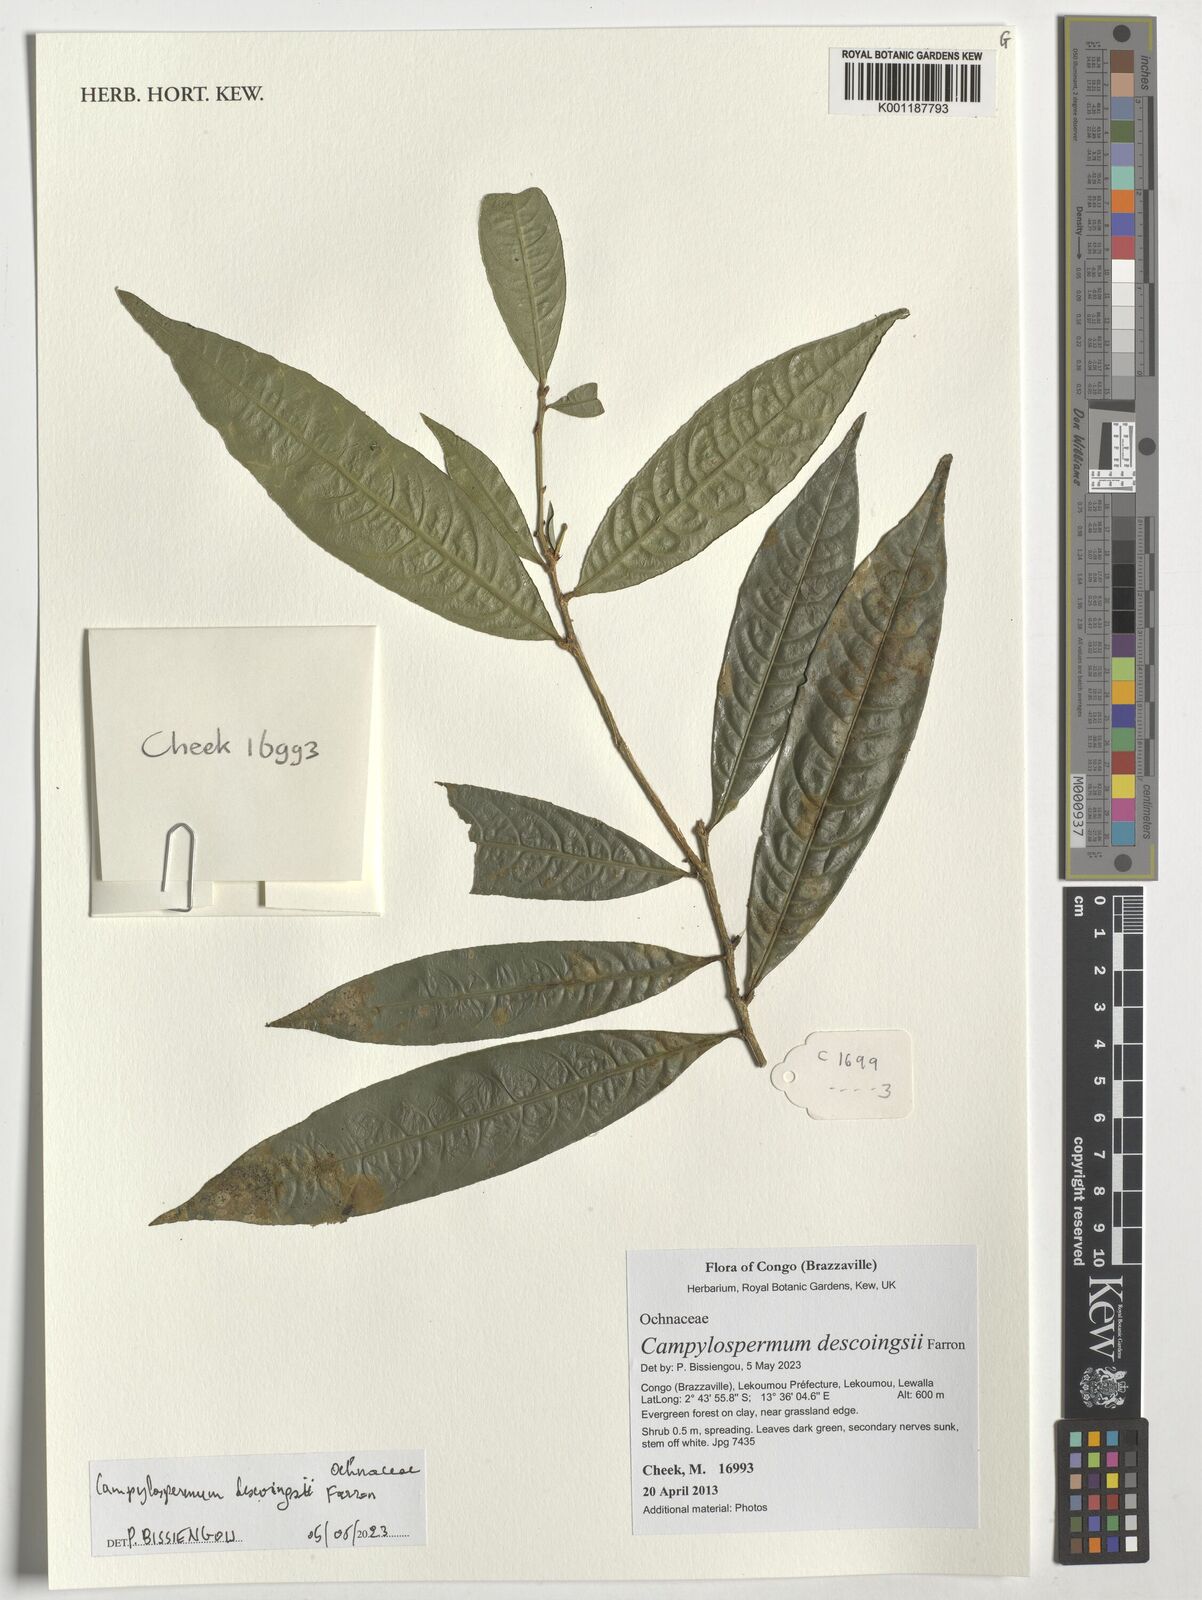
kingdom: Plantae
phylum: Tracheophyta
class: Magnoliopsida
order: Malpighiales
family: Ochnaceae
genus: Campylospermum
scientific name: Campylospermum descoingsii
